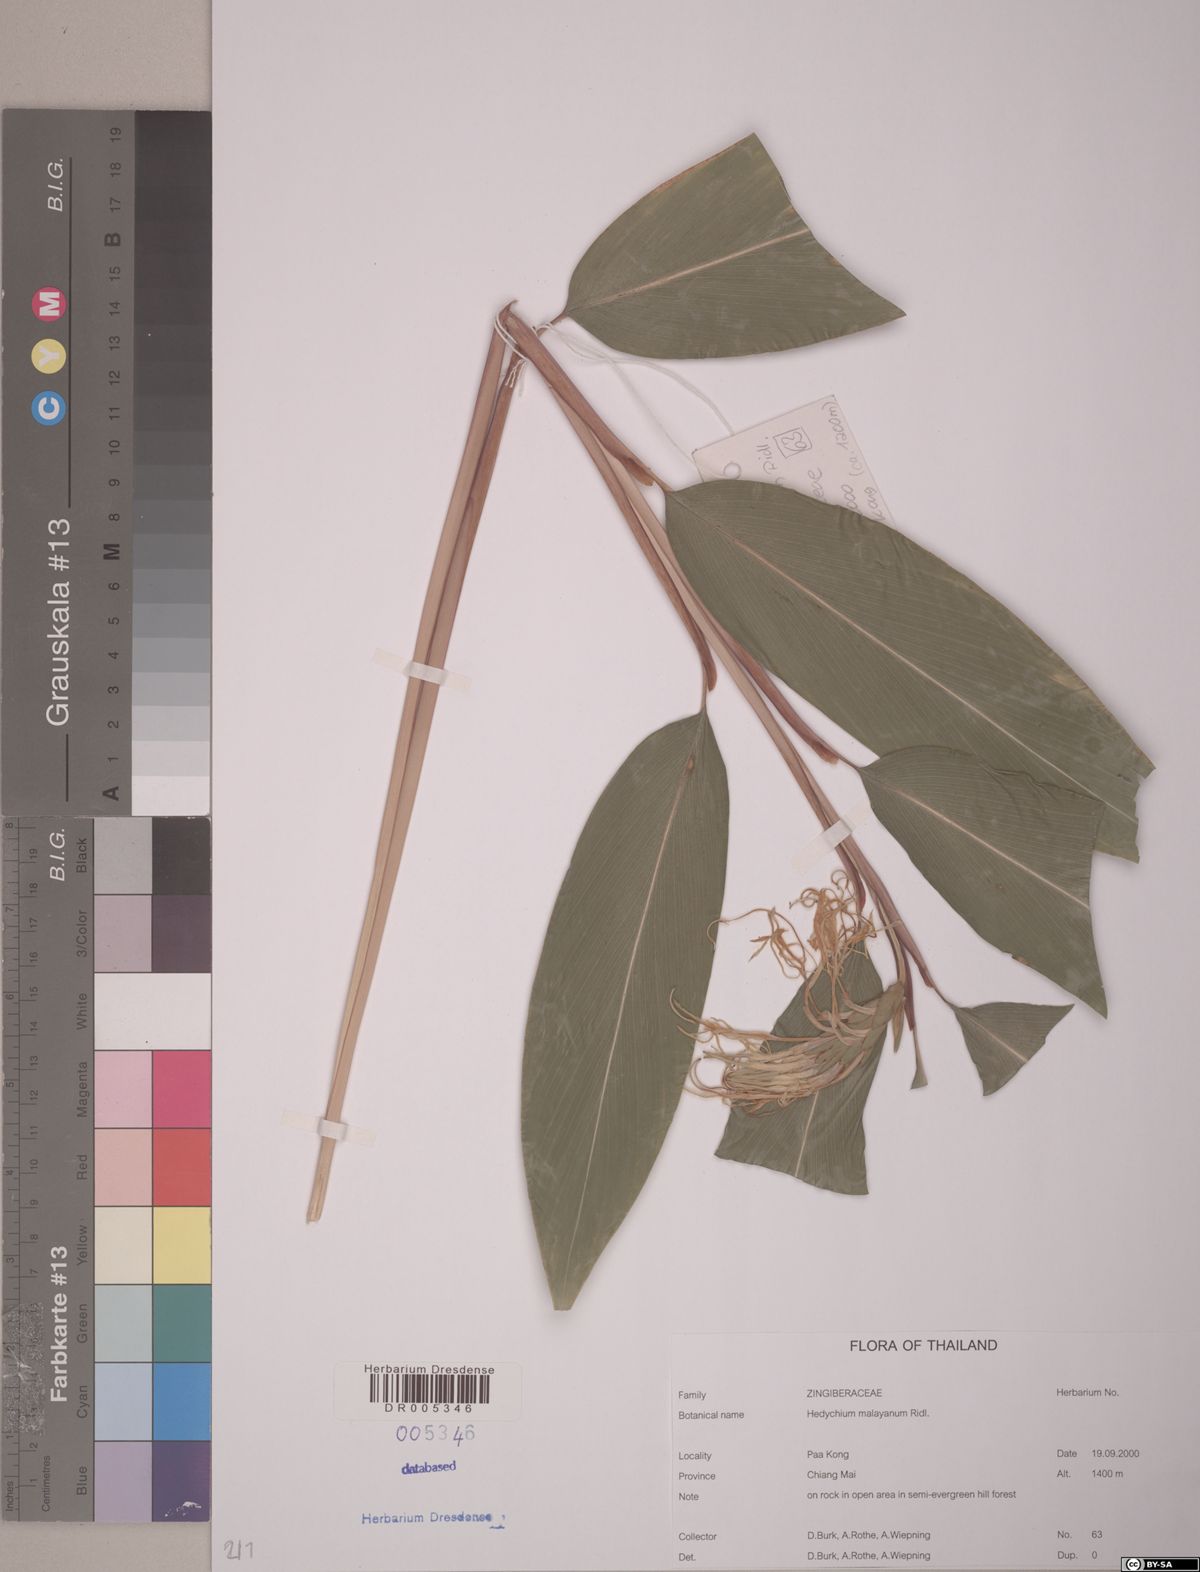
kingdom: Plantae
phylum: Tracheophyta
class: Liliopsida
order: Zingiberales
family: Zingiberaceae
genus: Hedychium
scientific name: Hedychium malayanum
